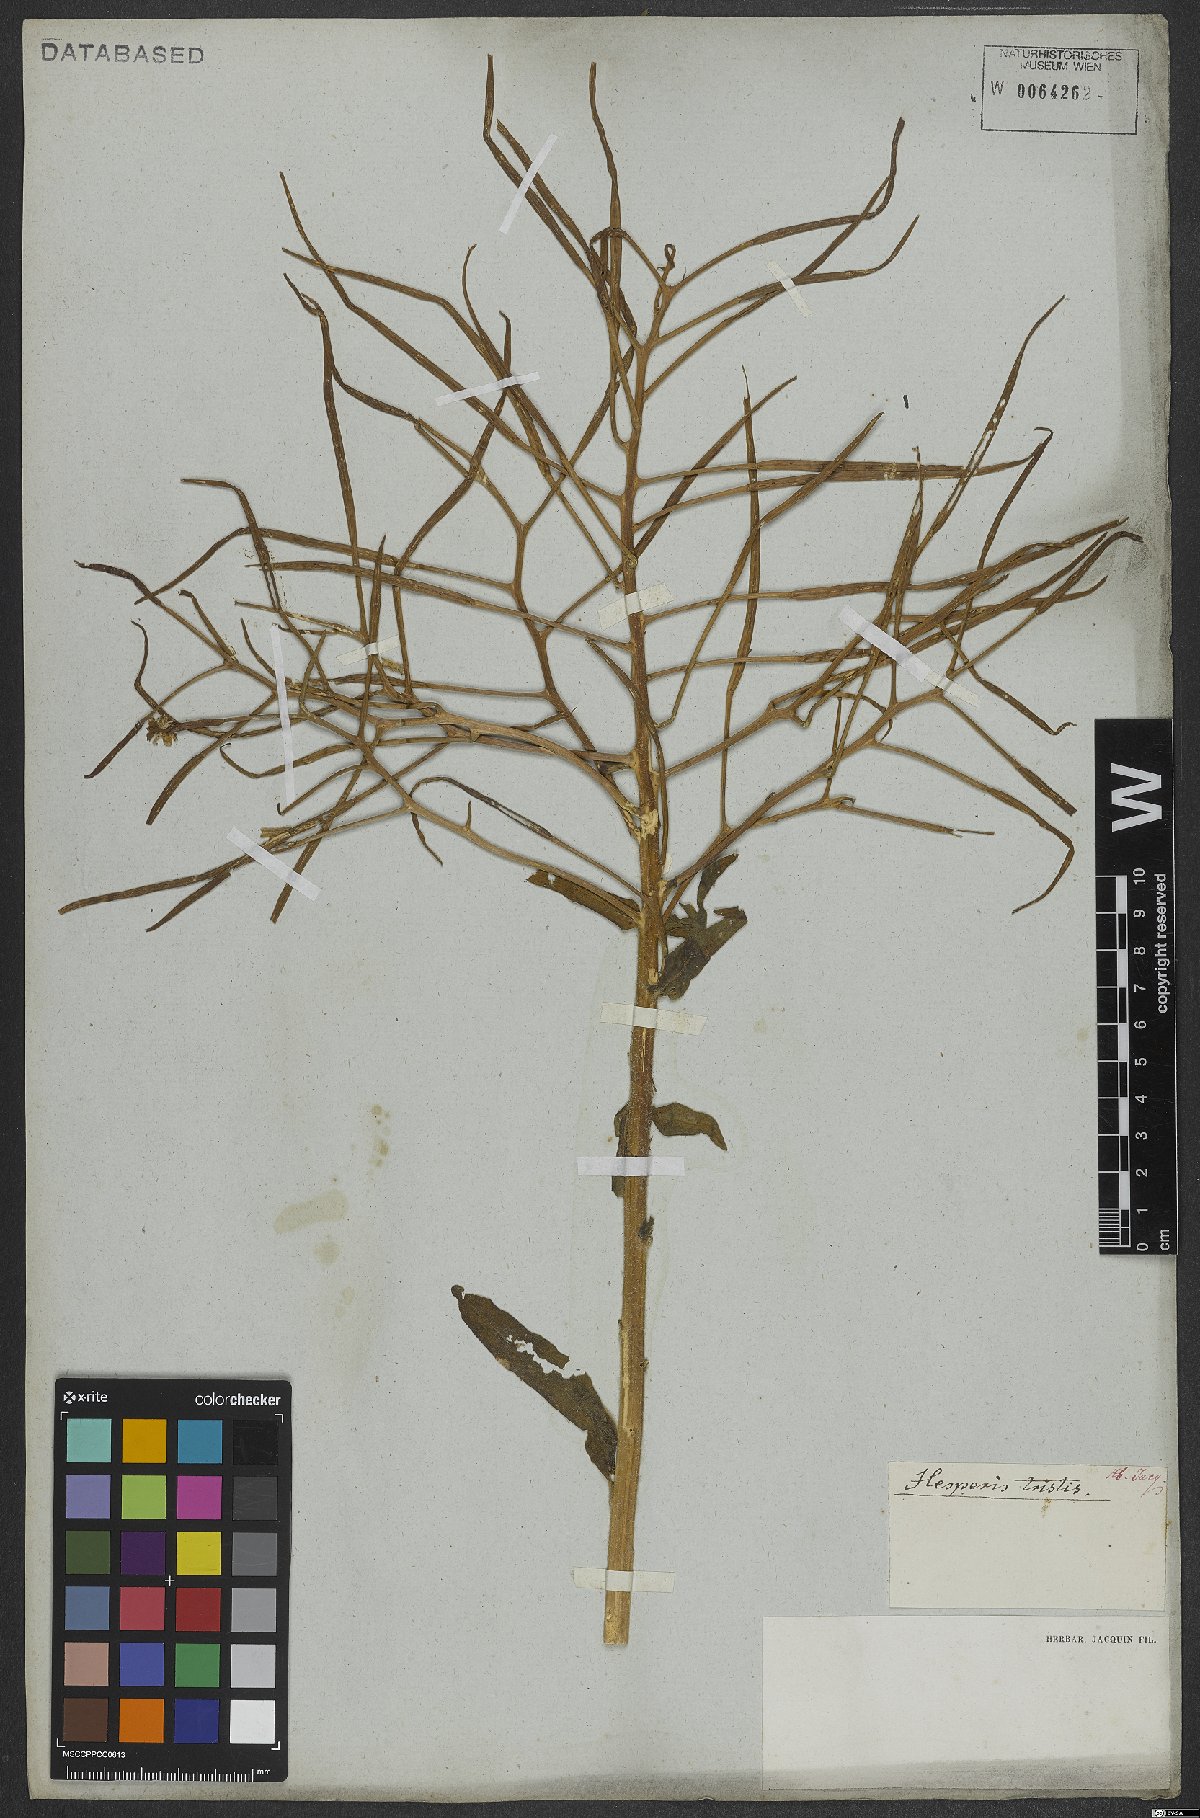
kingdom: Plantae
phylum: Tracheophyta
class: Magnoliopsida
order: Brassicales
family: Brassicaceae
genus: Hesperis
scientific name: Hesperis tristis
